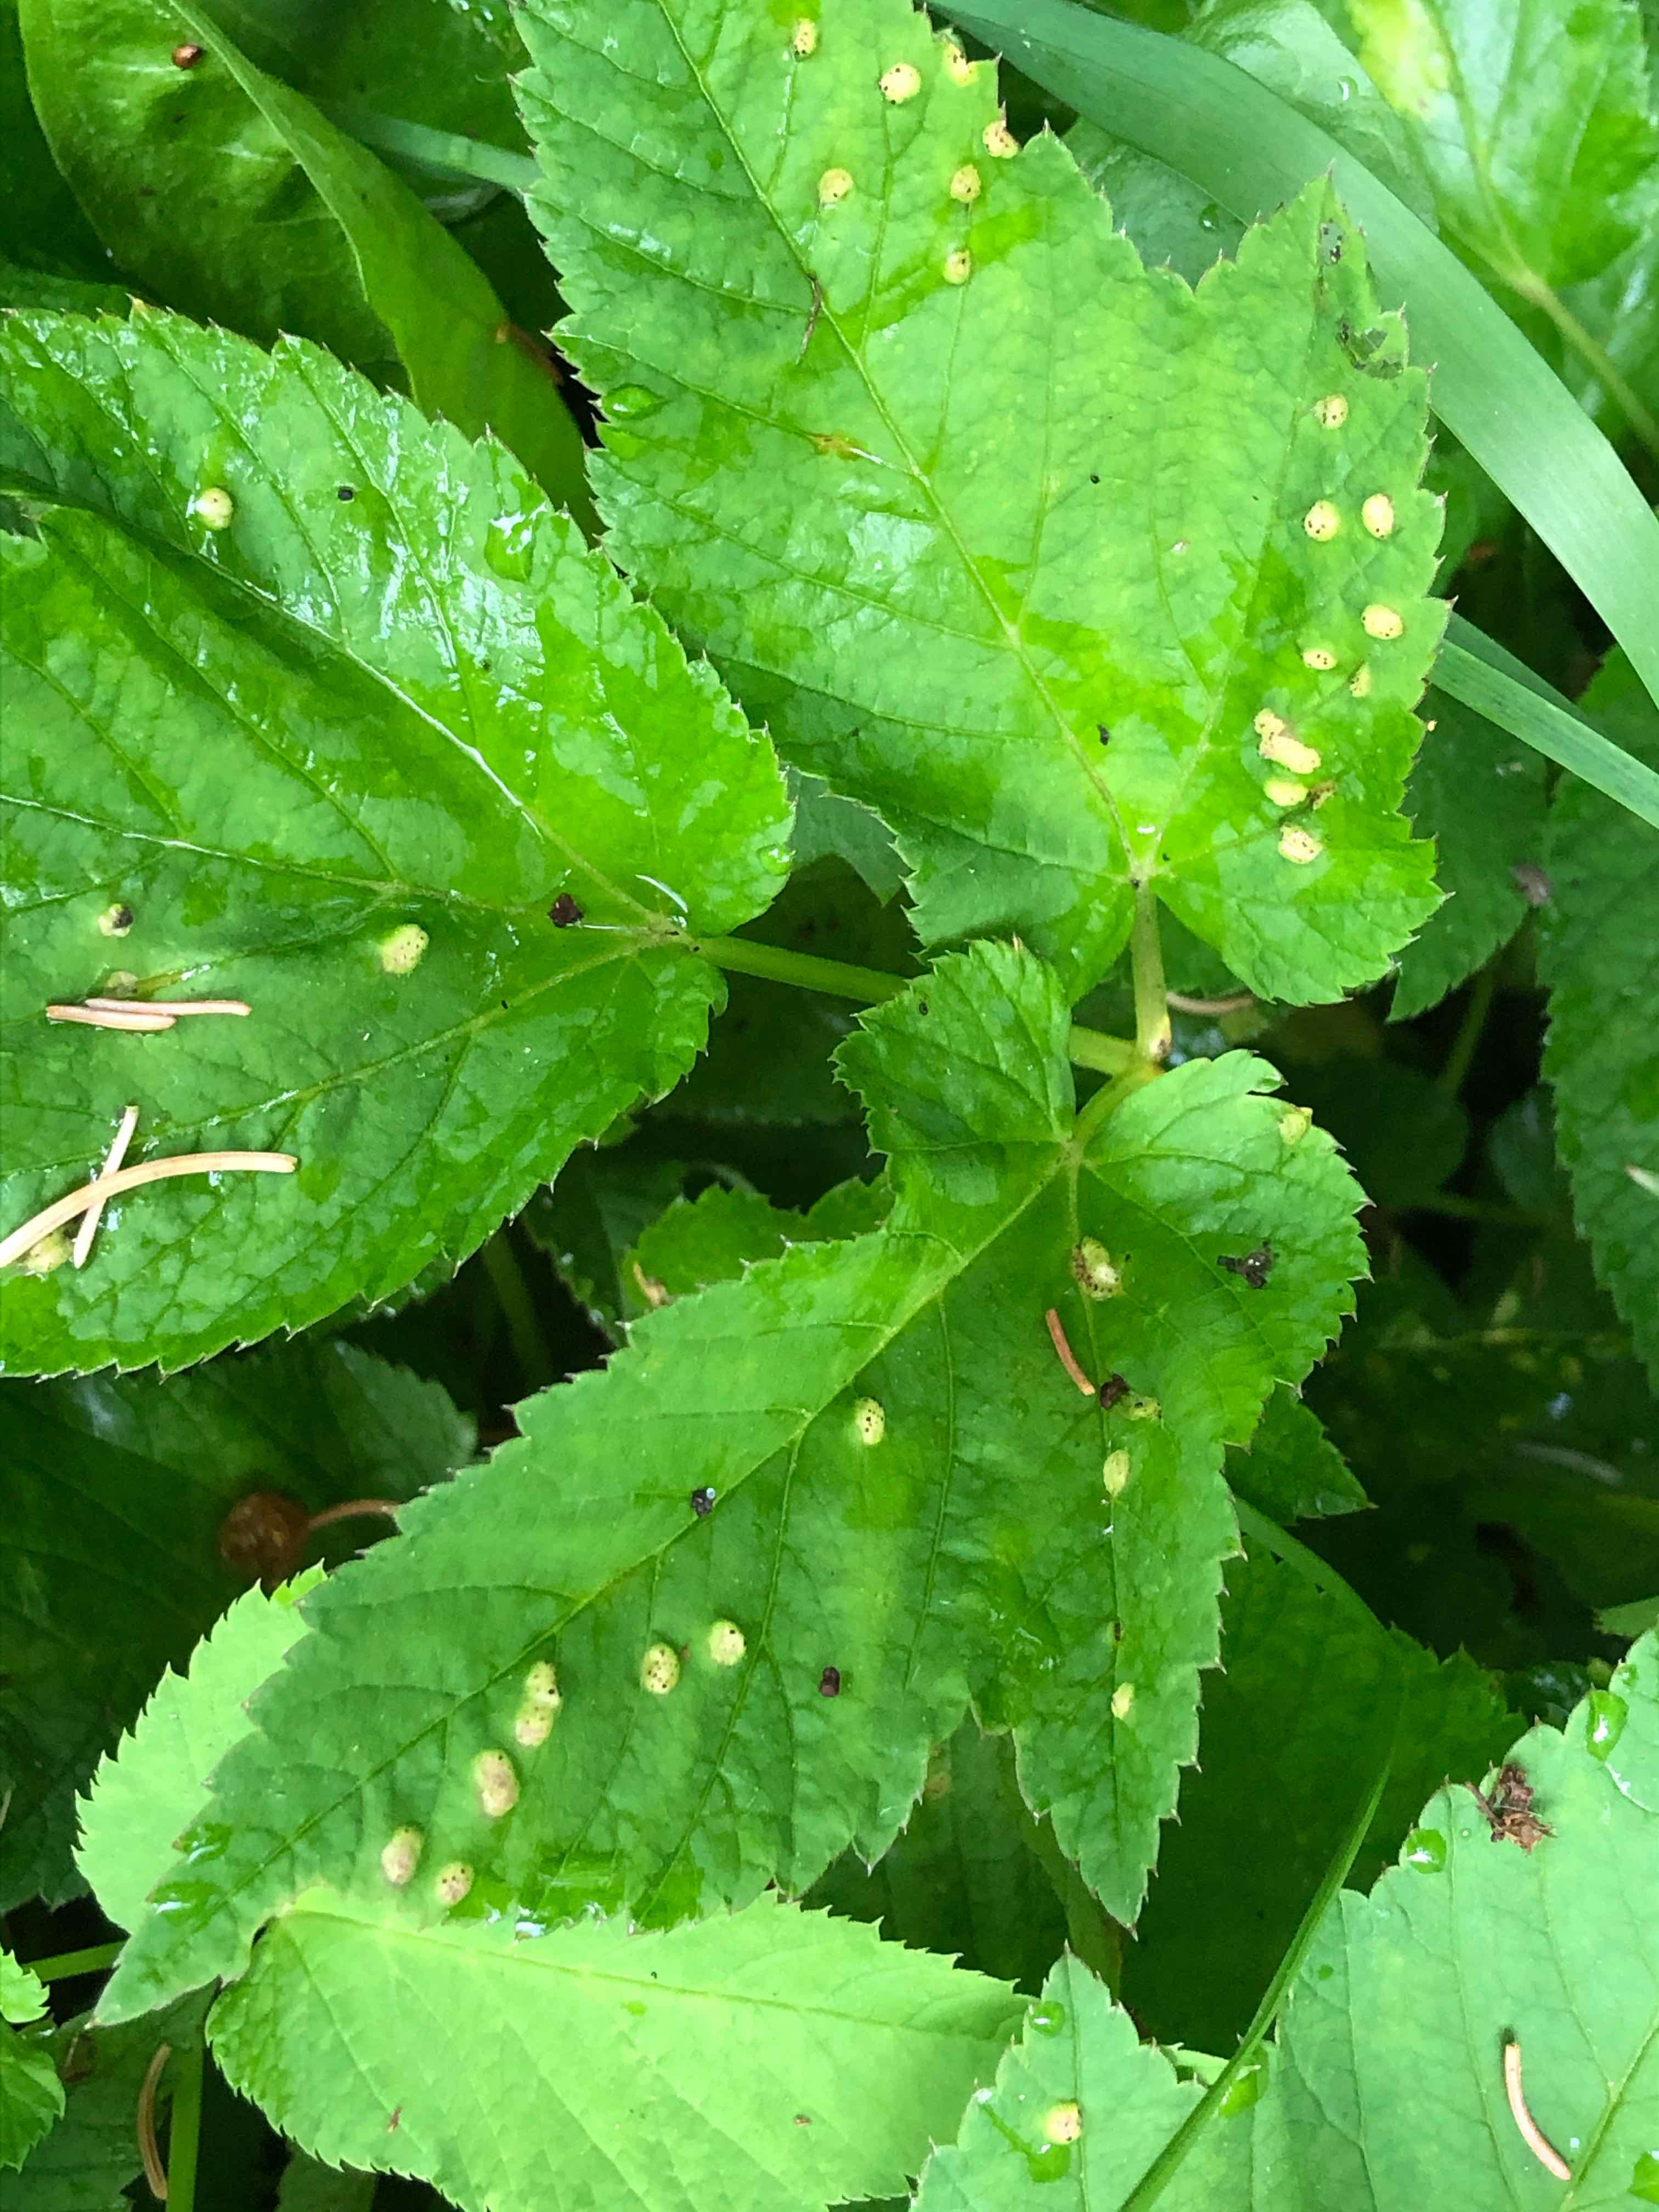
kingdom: Fungi
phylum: Basidiomycota
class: Pucciniomycetes
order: Pucciniales
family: Pucciniaceae
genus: Puccinia
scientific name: Puccinia
